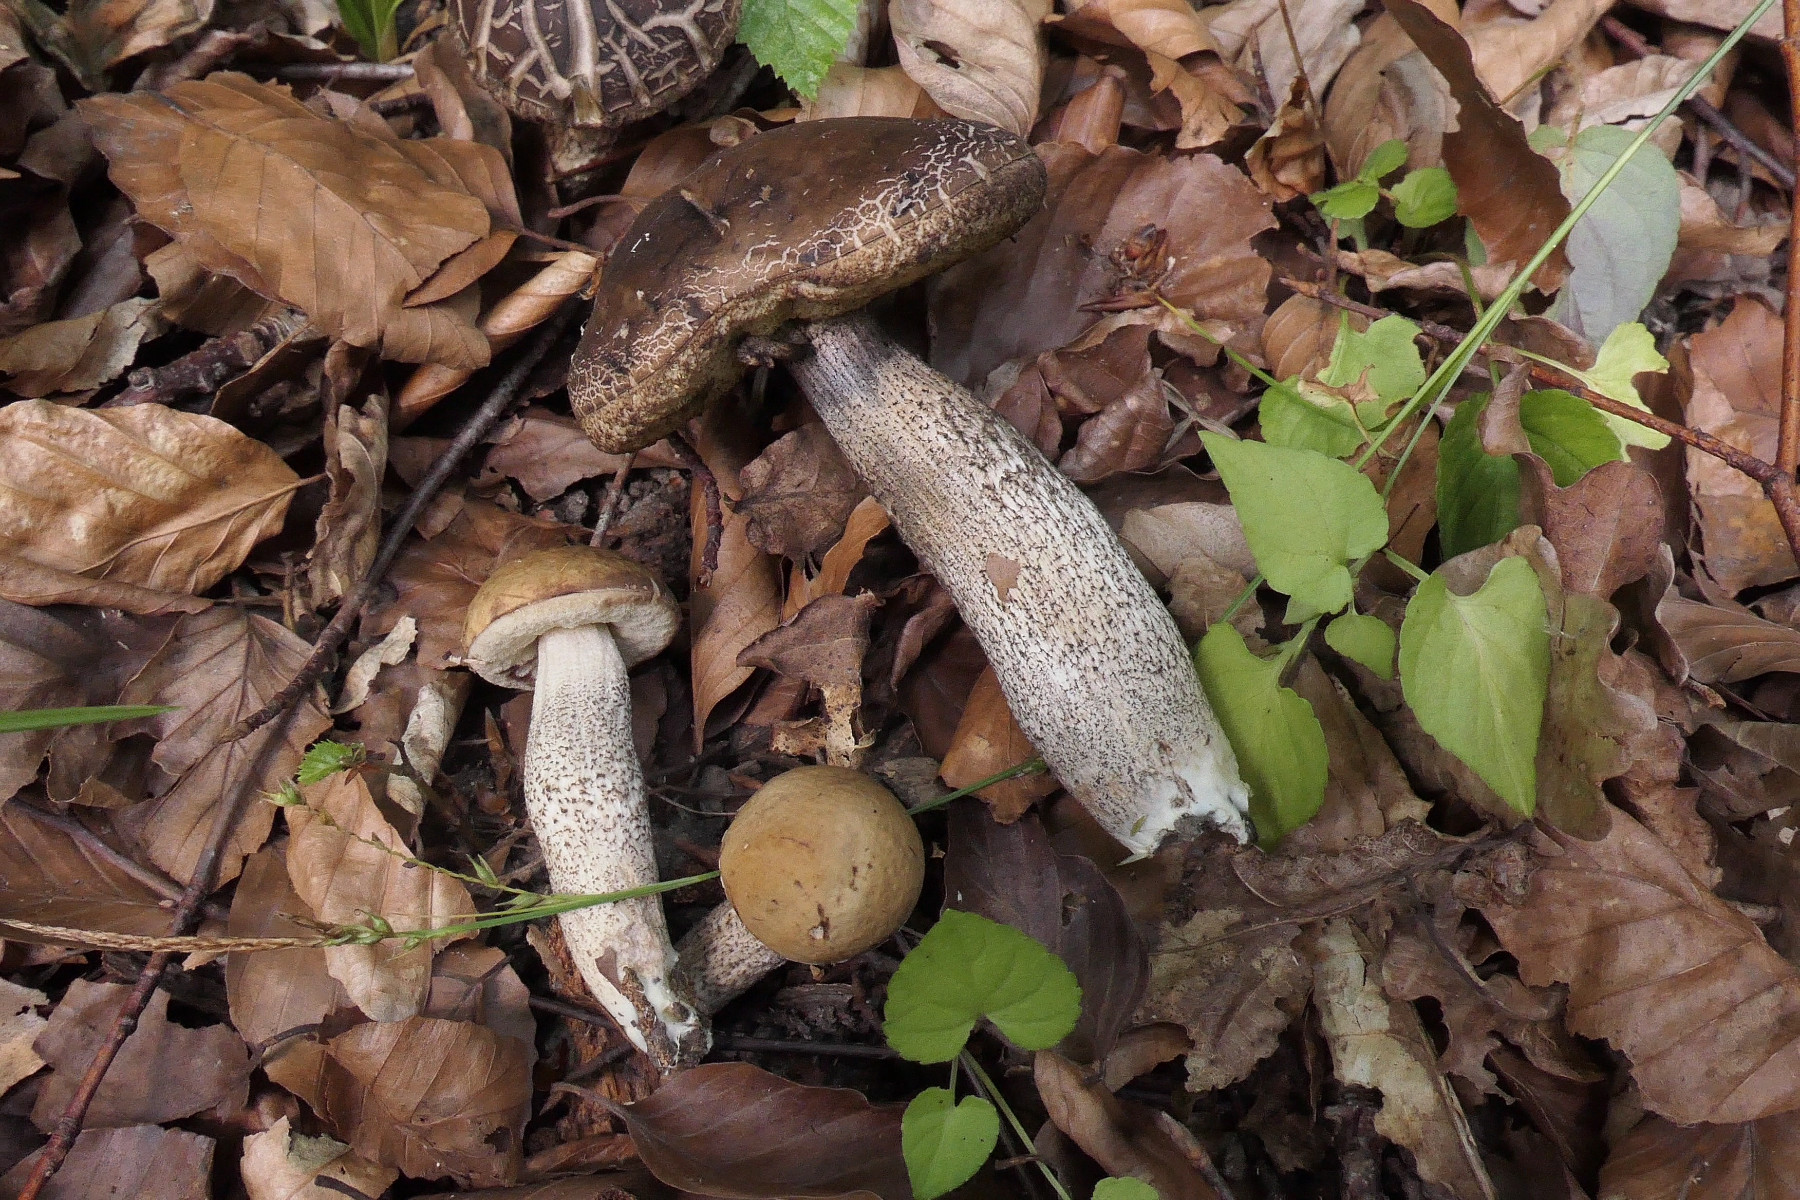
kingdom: Fungi
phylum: Basidiomycota
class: Agaricomycetes
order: Boletales
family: Boletaceae
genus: Leccinellum
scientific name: Leccinellum pseudoscabrum
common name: avnbøg-skælrørhat
